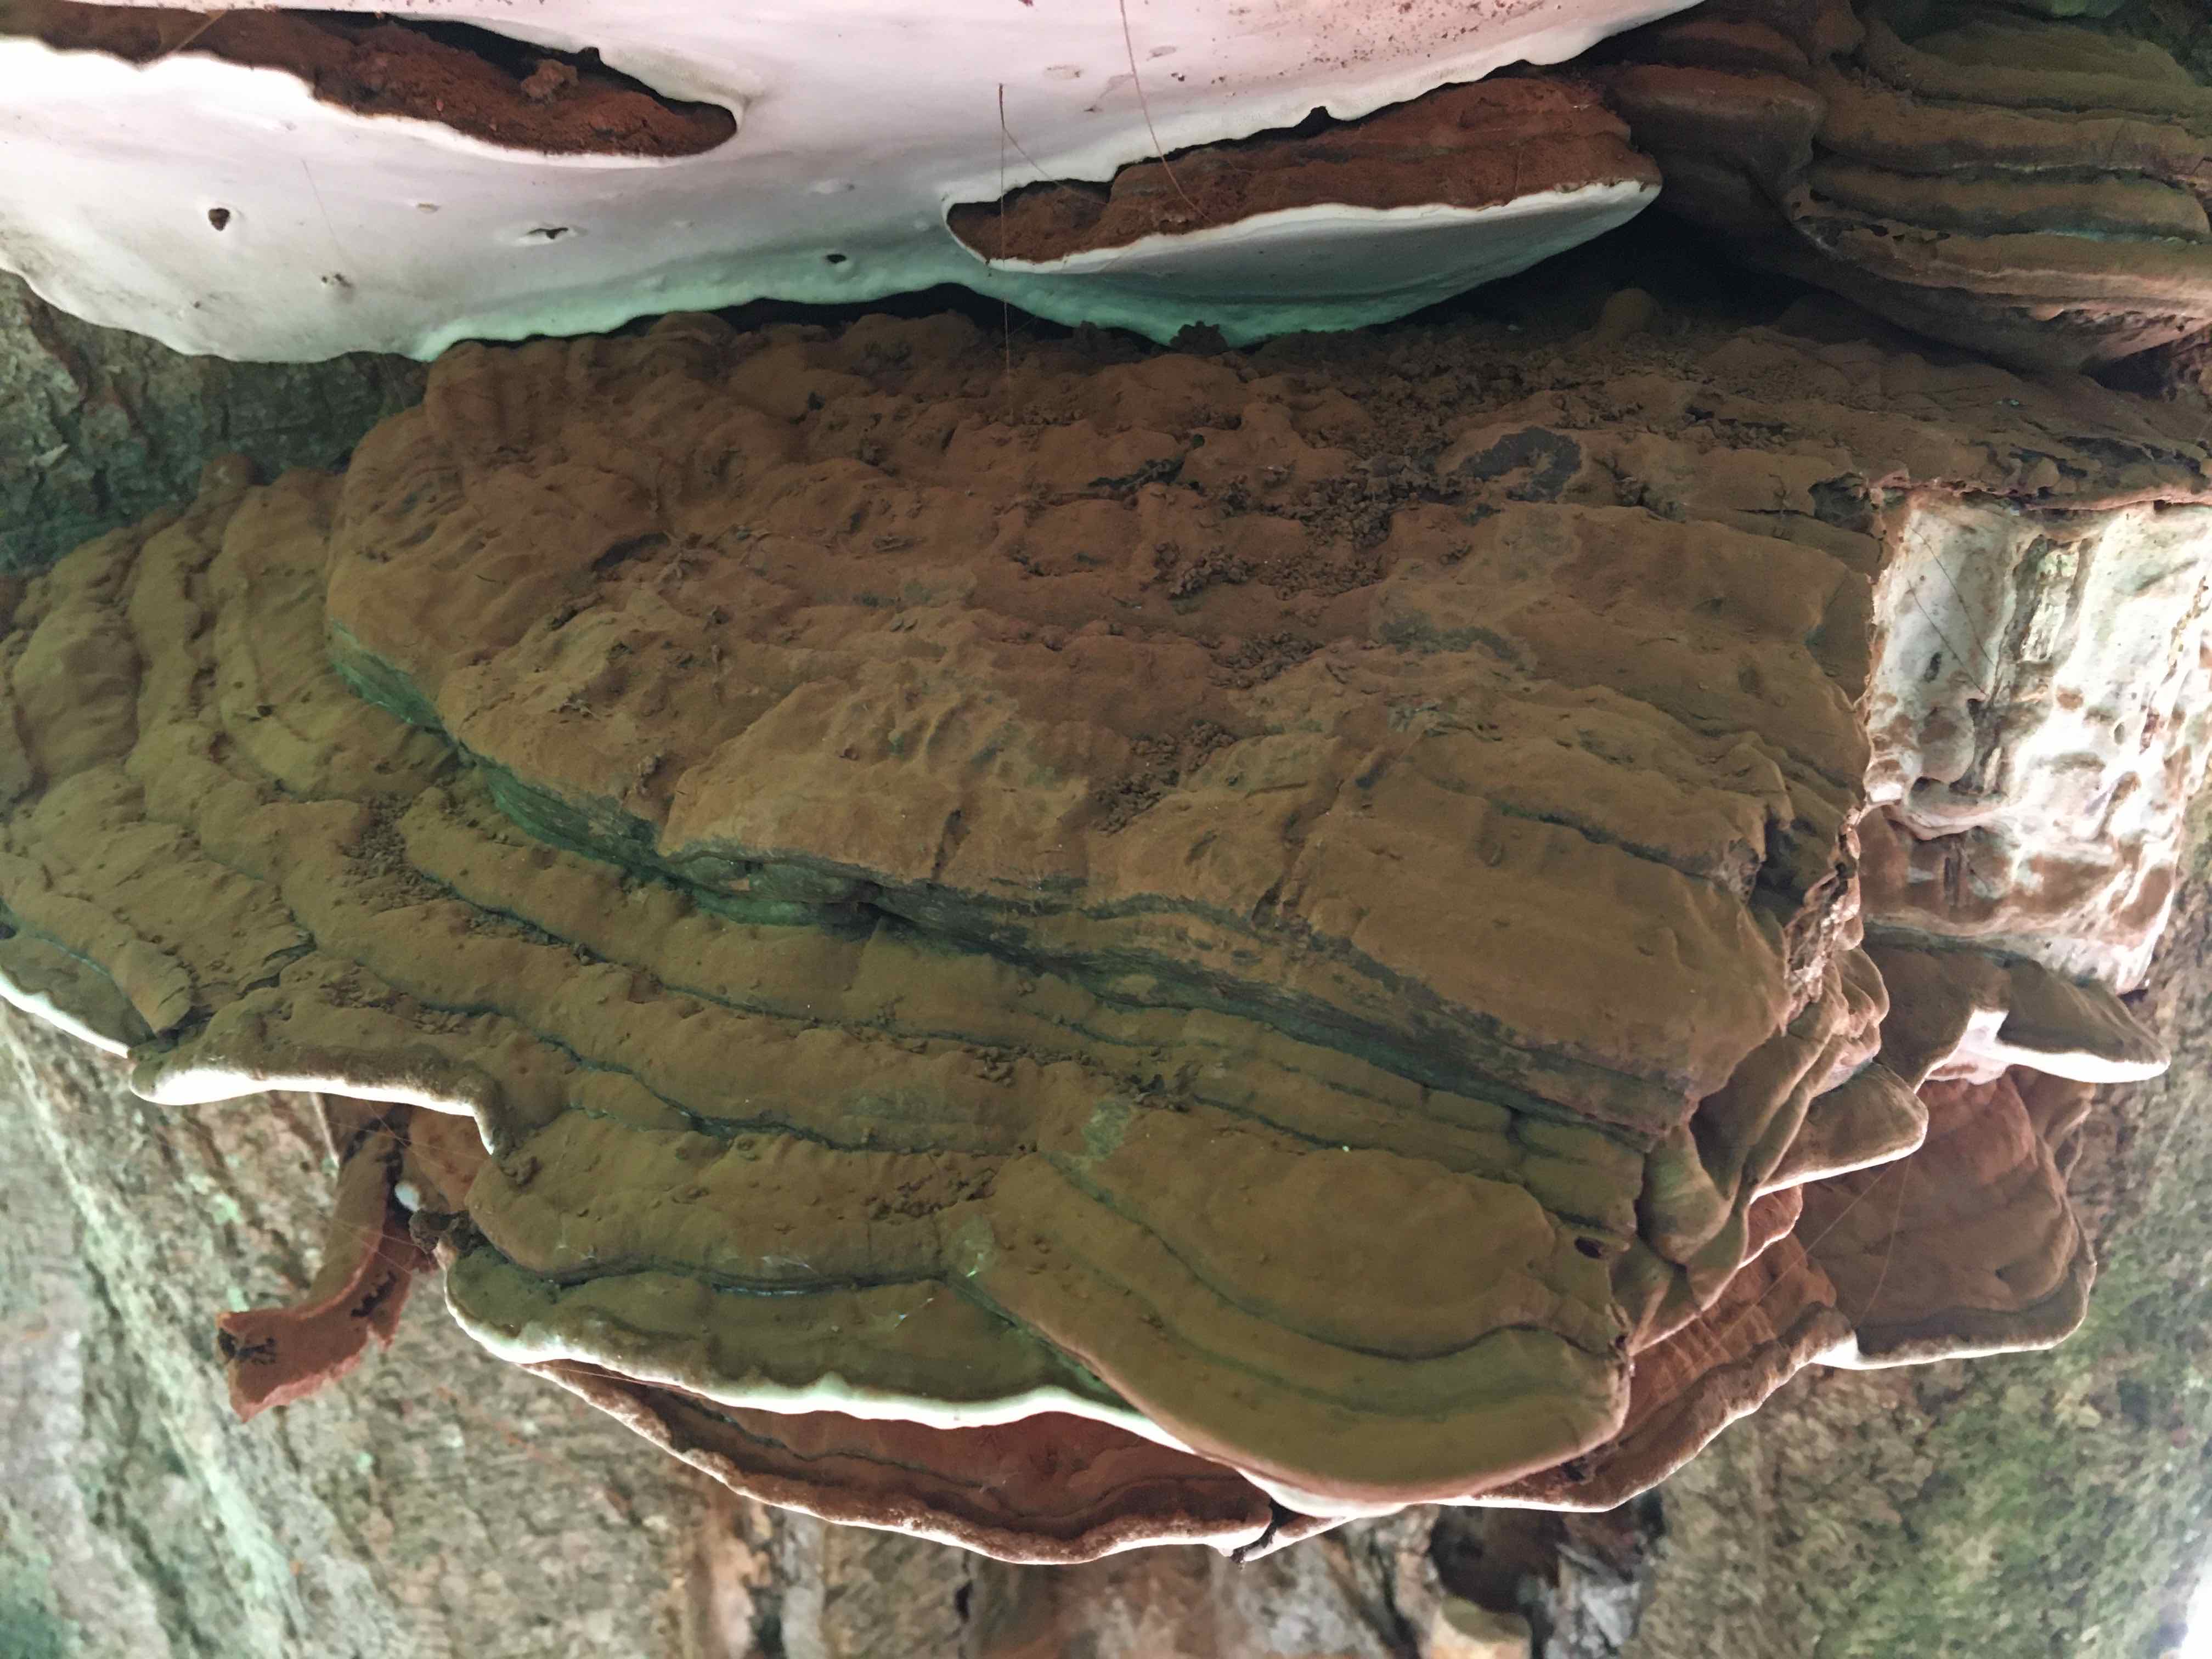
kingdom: Fungi
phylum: Basidiomycota
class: Agaricomycetes
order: Polyporales
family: Polyporaceae
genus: Ganoderma
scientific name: Ganoderma applanatum
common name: flad lakporesvamp
